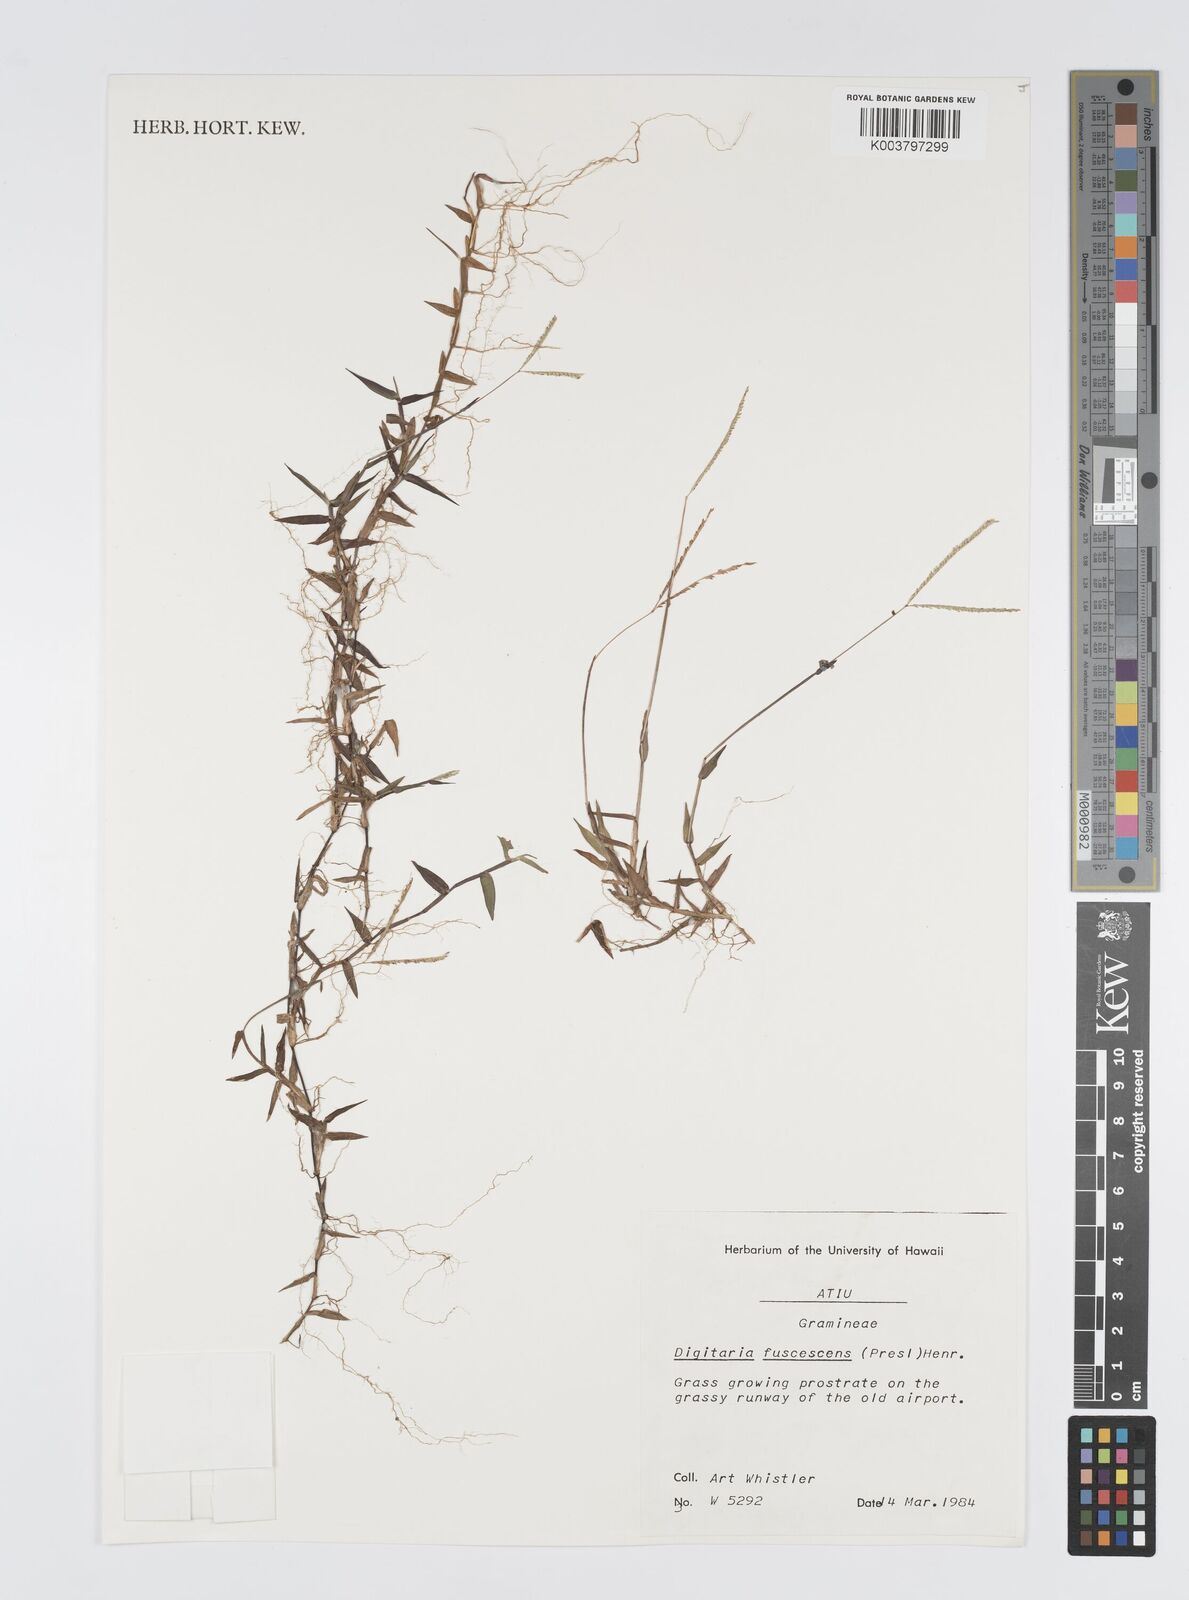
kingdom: Plantae
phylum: Tracheophyta
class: Liliopsida
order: Poales
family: Poaceae
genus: Digitaria
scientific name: Digitaria fuscescens
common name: Yellow crabgrass
